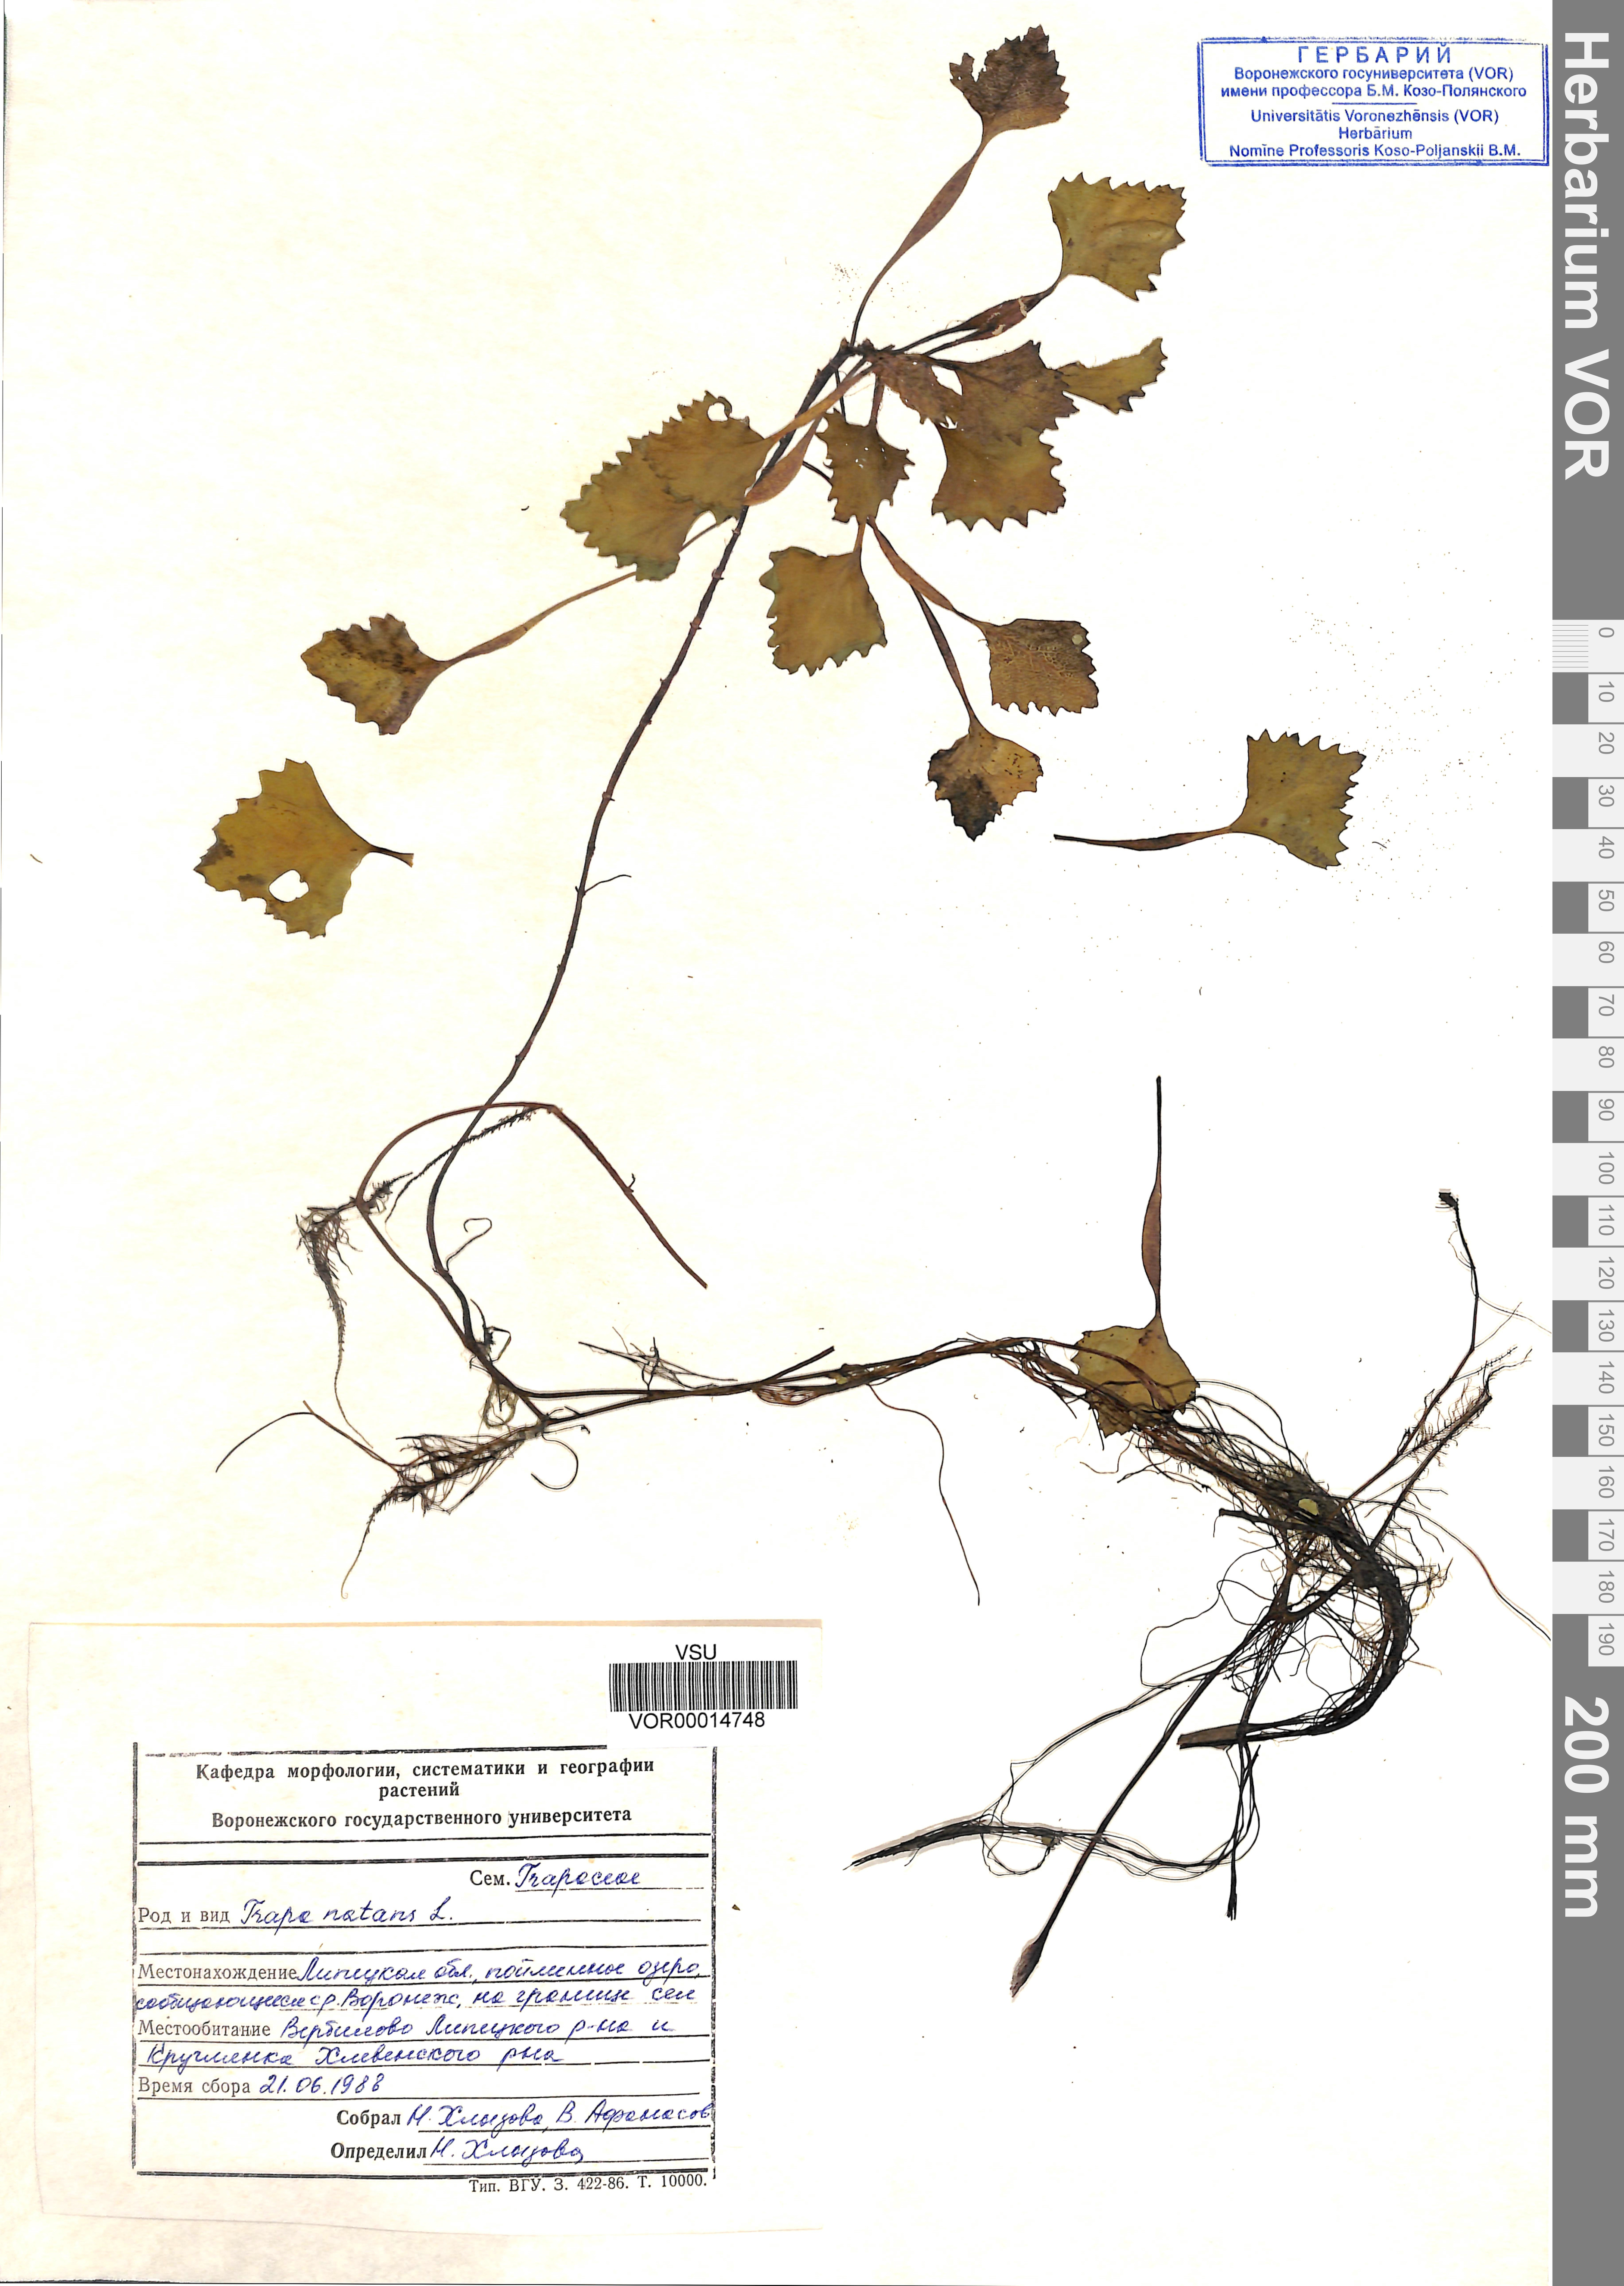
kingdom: Plantae
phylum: Tracheophyta
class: Magnoliopsida
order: Myrtales
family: Lythraceae
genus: Trapa
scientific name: Trapa natans
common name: Water chestnut
